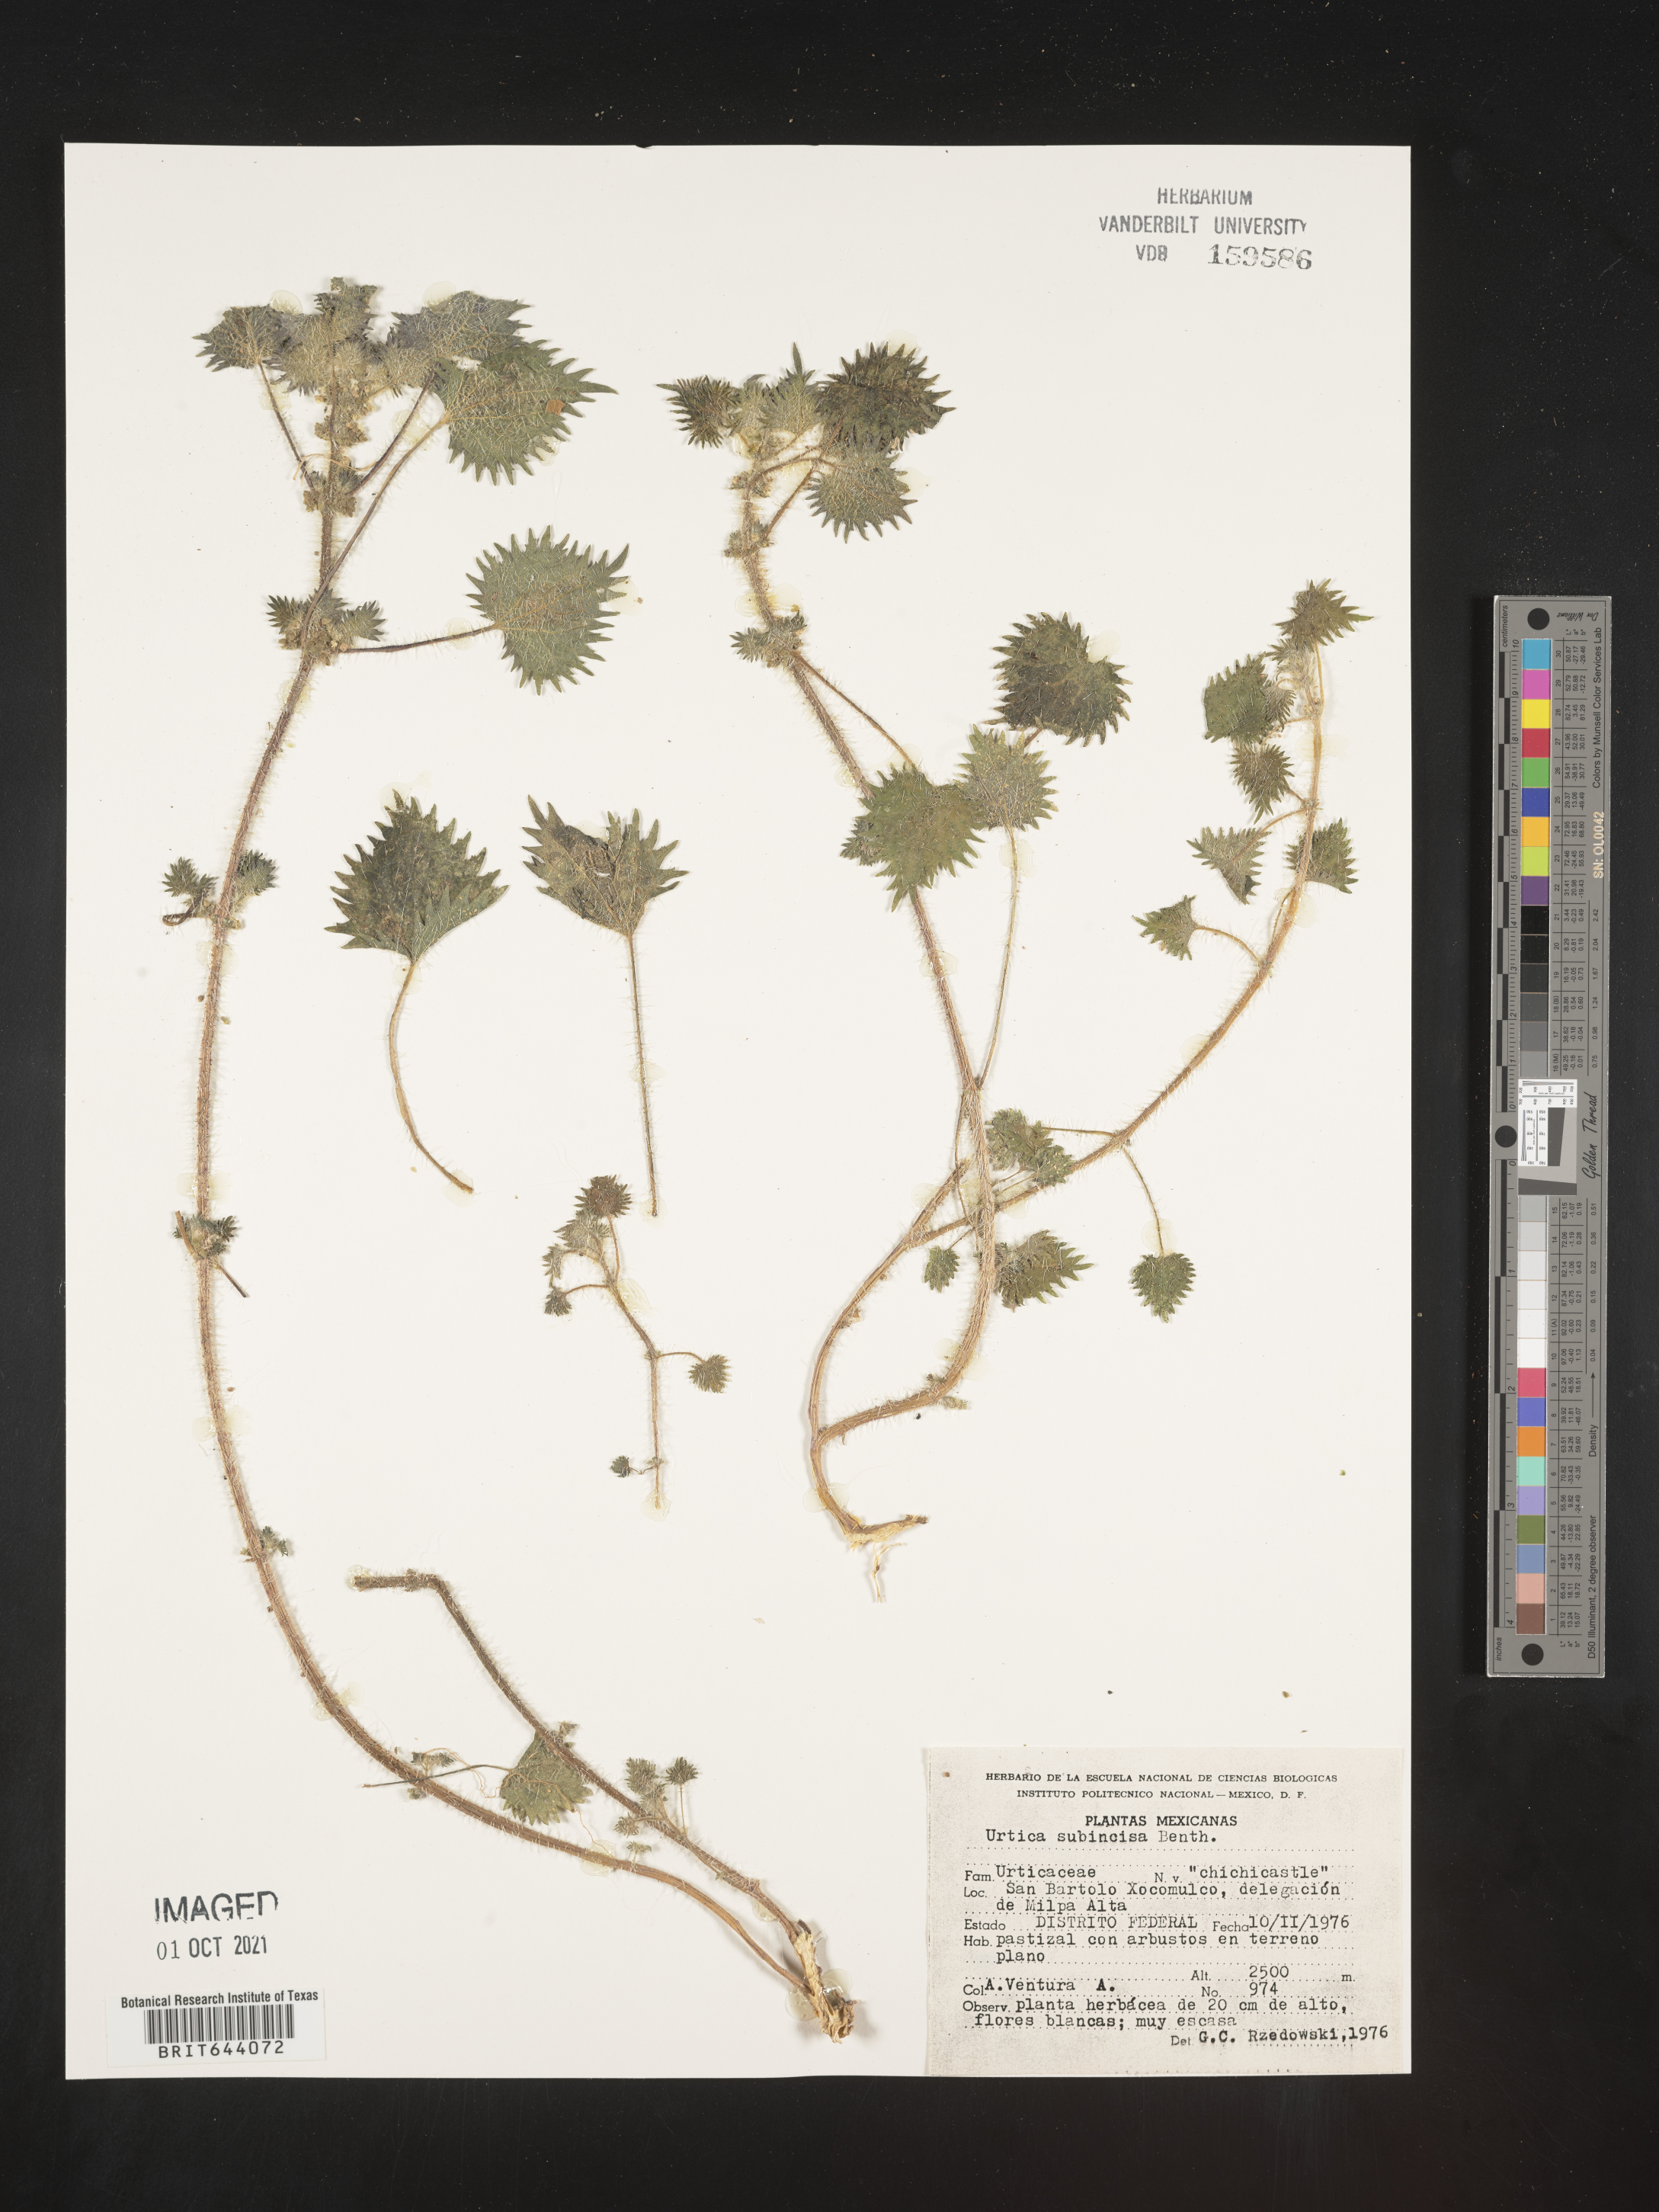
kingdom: Plantae
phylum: Tracheophyta
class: Magnoliopsida
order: Rosales
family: Urticaceae
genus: Urtica
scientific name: Urtica
